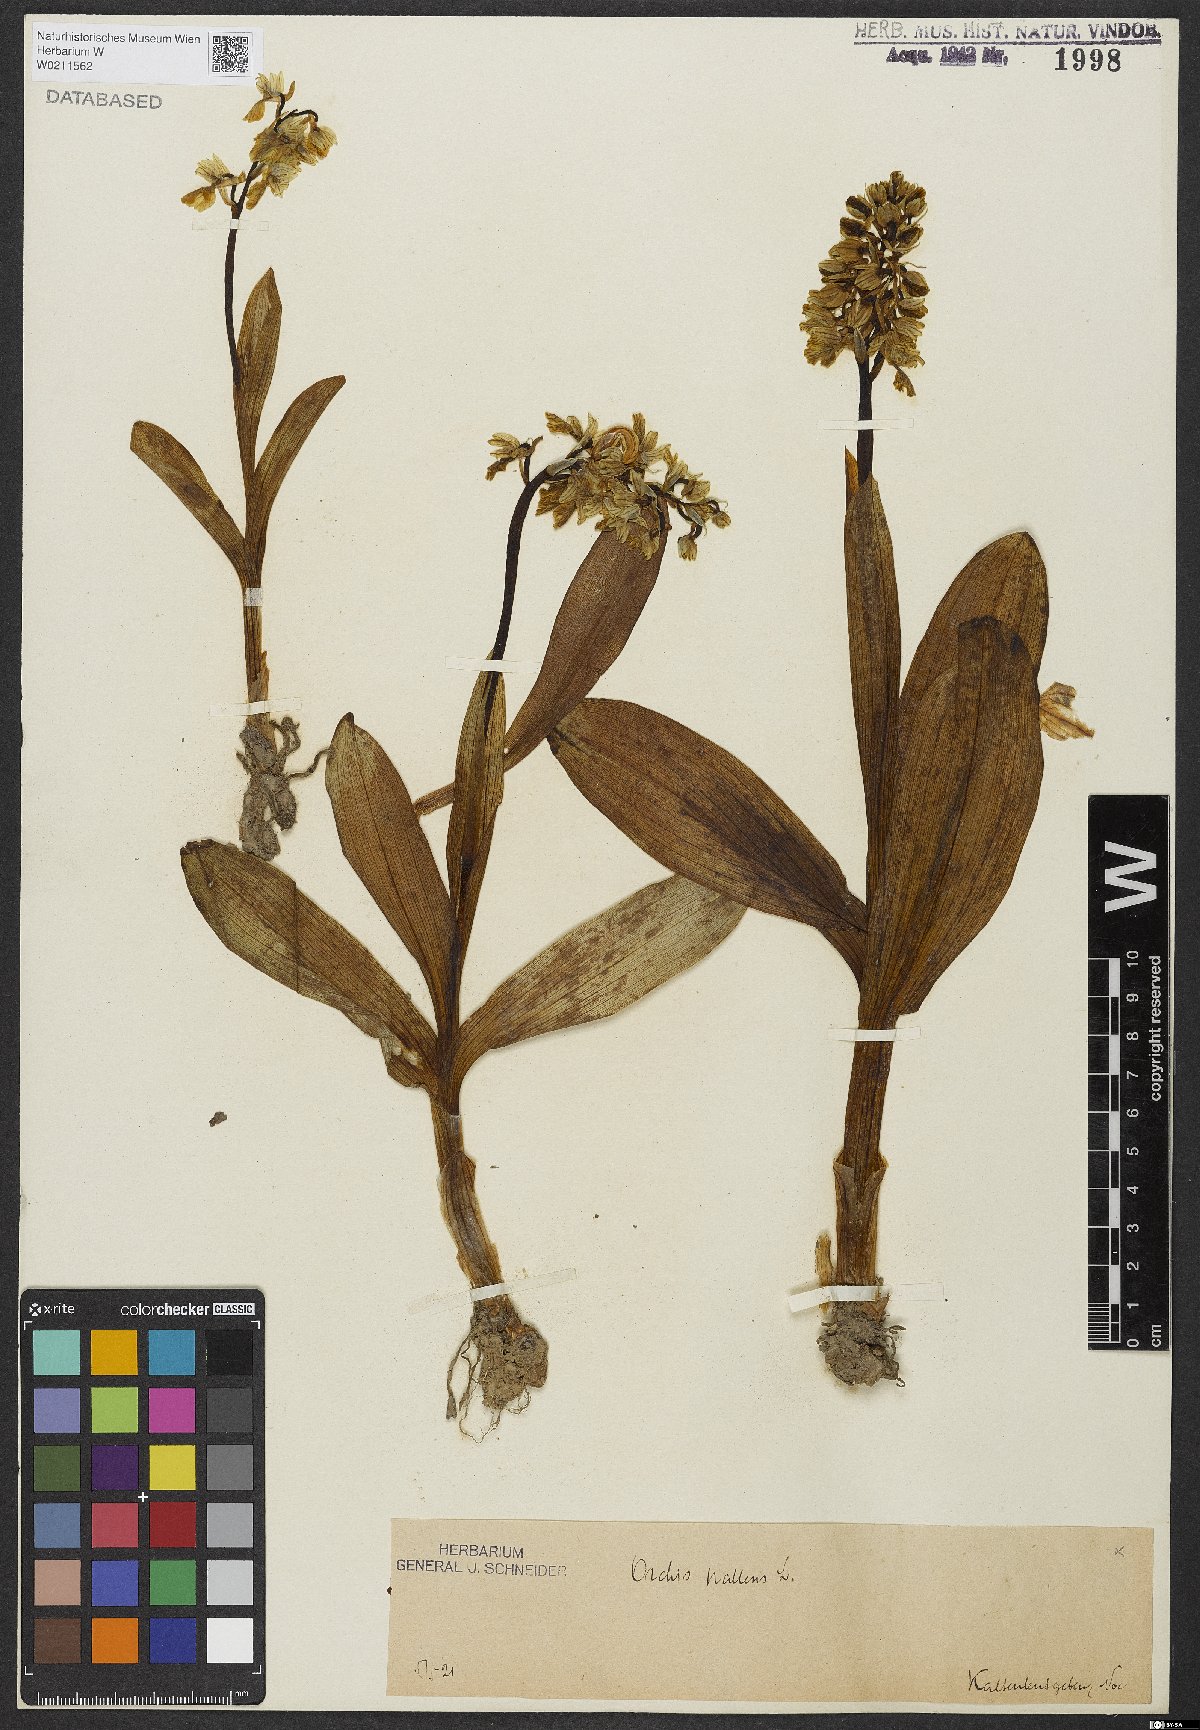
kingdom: Plantae
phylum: Tracheophyta
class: Liliopsida
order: Asparagales
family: Orchidaceae
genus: Orchis
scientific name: Orchis pallens
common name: Pale-flowered orchid
